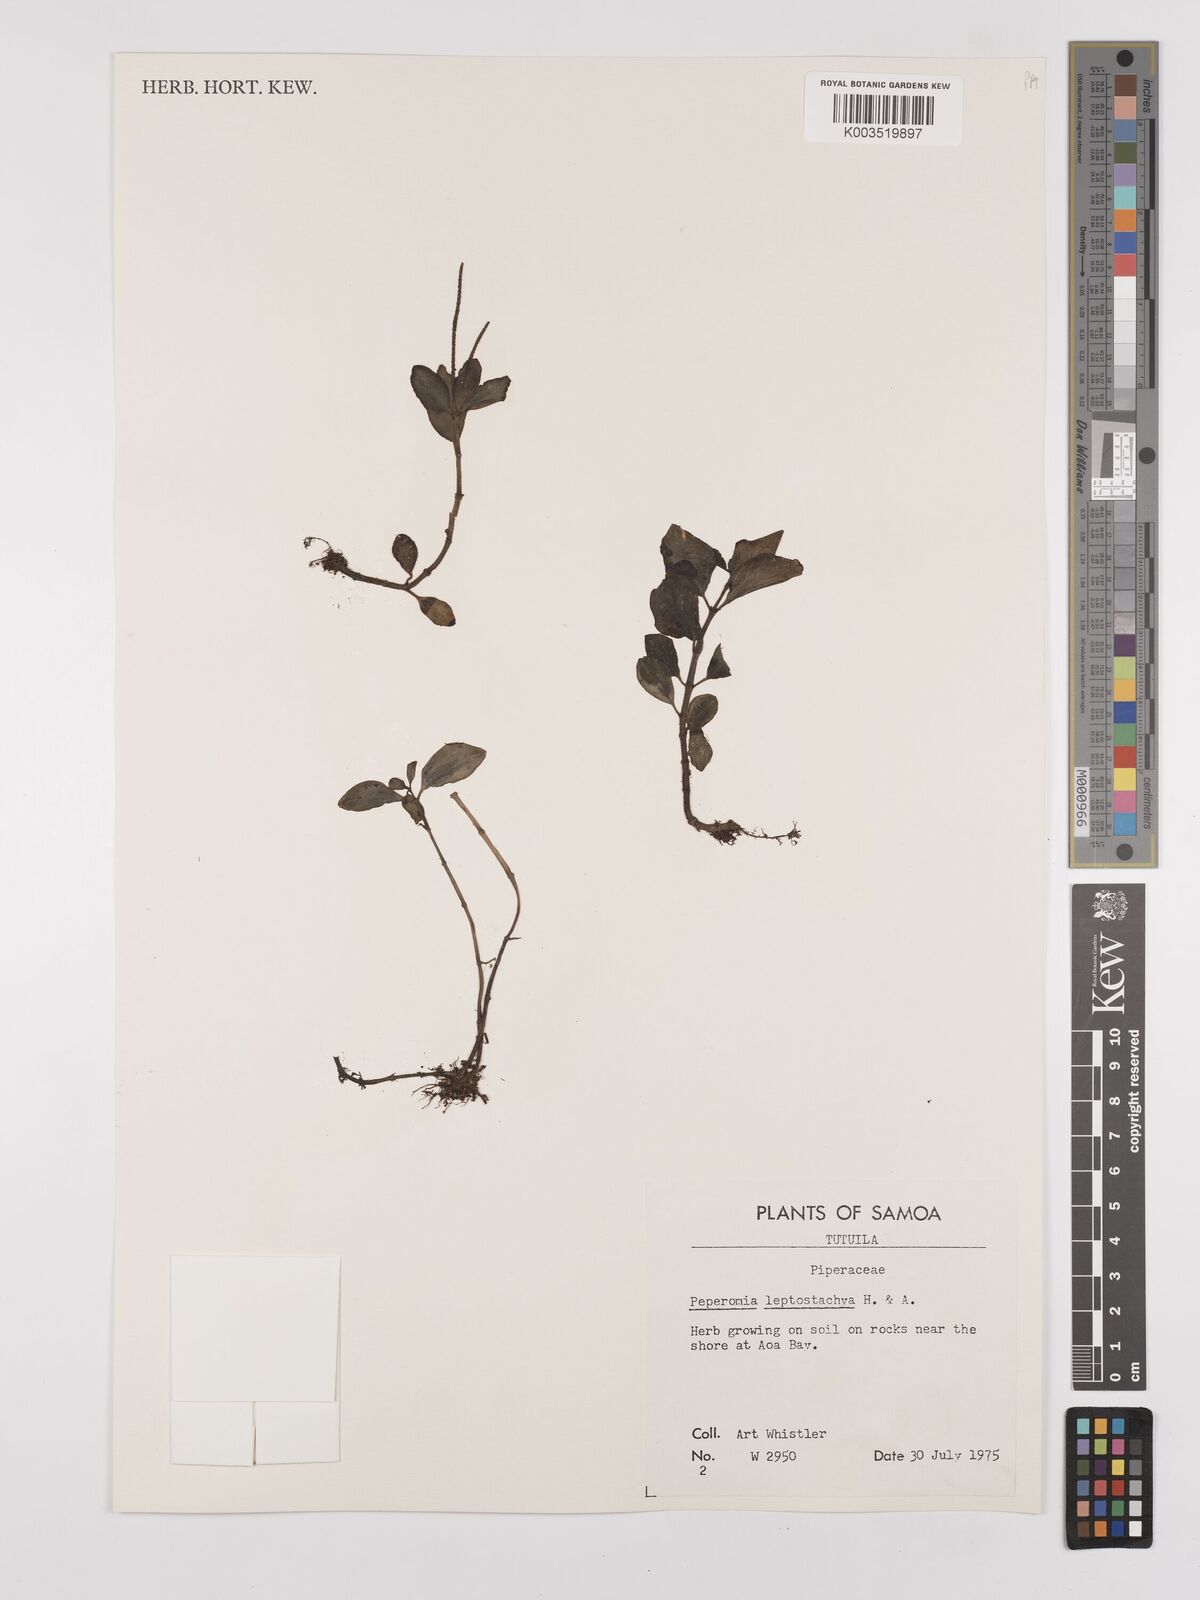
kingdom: Plantae
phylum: Tracheophyta
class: Magnoliopsida
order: Piperales
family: Piperaceae
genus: Peperomia
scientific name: Peperomia leptostachya
